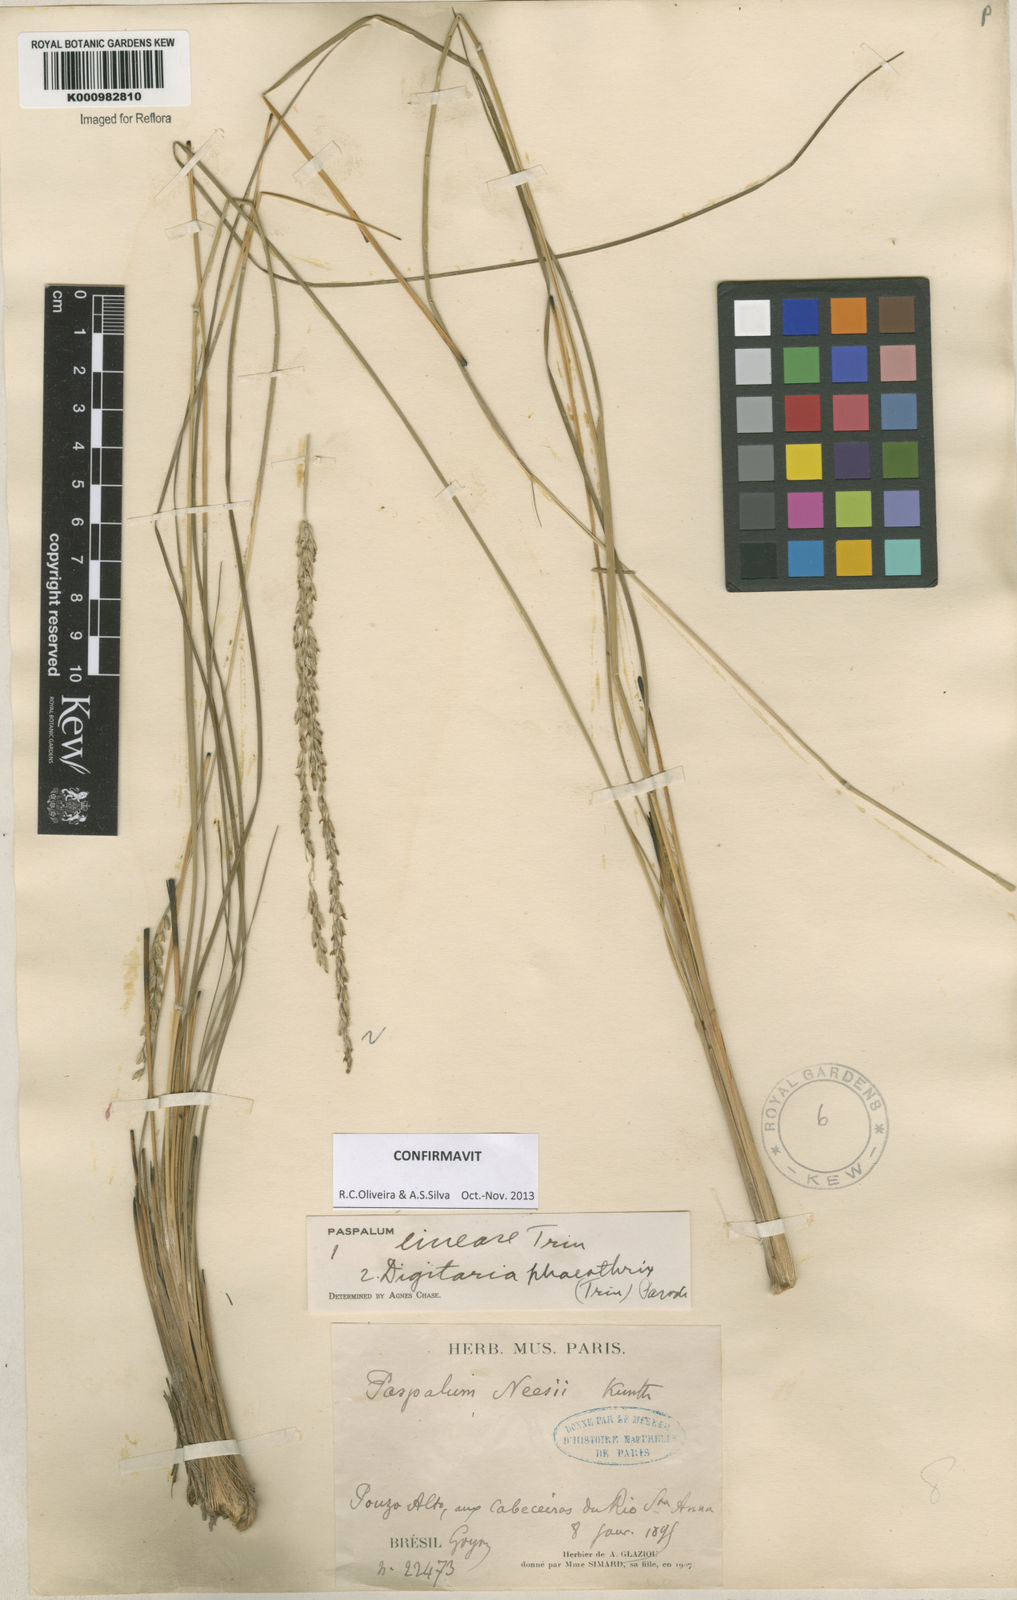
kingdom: Plantae
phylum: Tracheophyta
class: Liliopsida
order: Poales
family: Poaceae
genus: Paspalum
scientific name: Paspalum lineare
